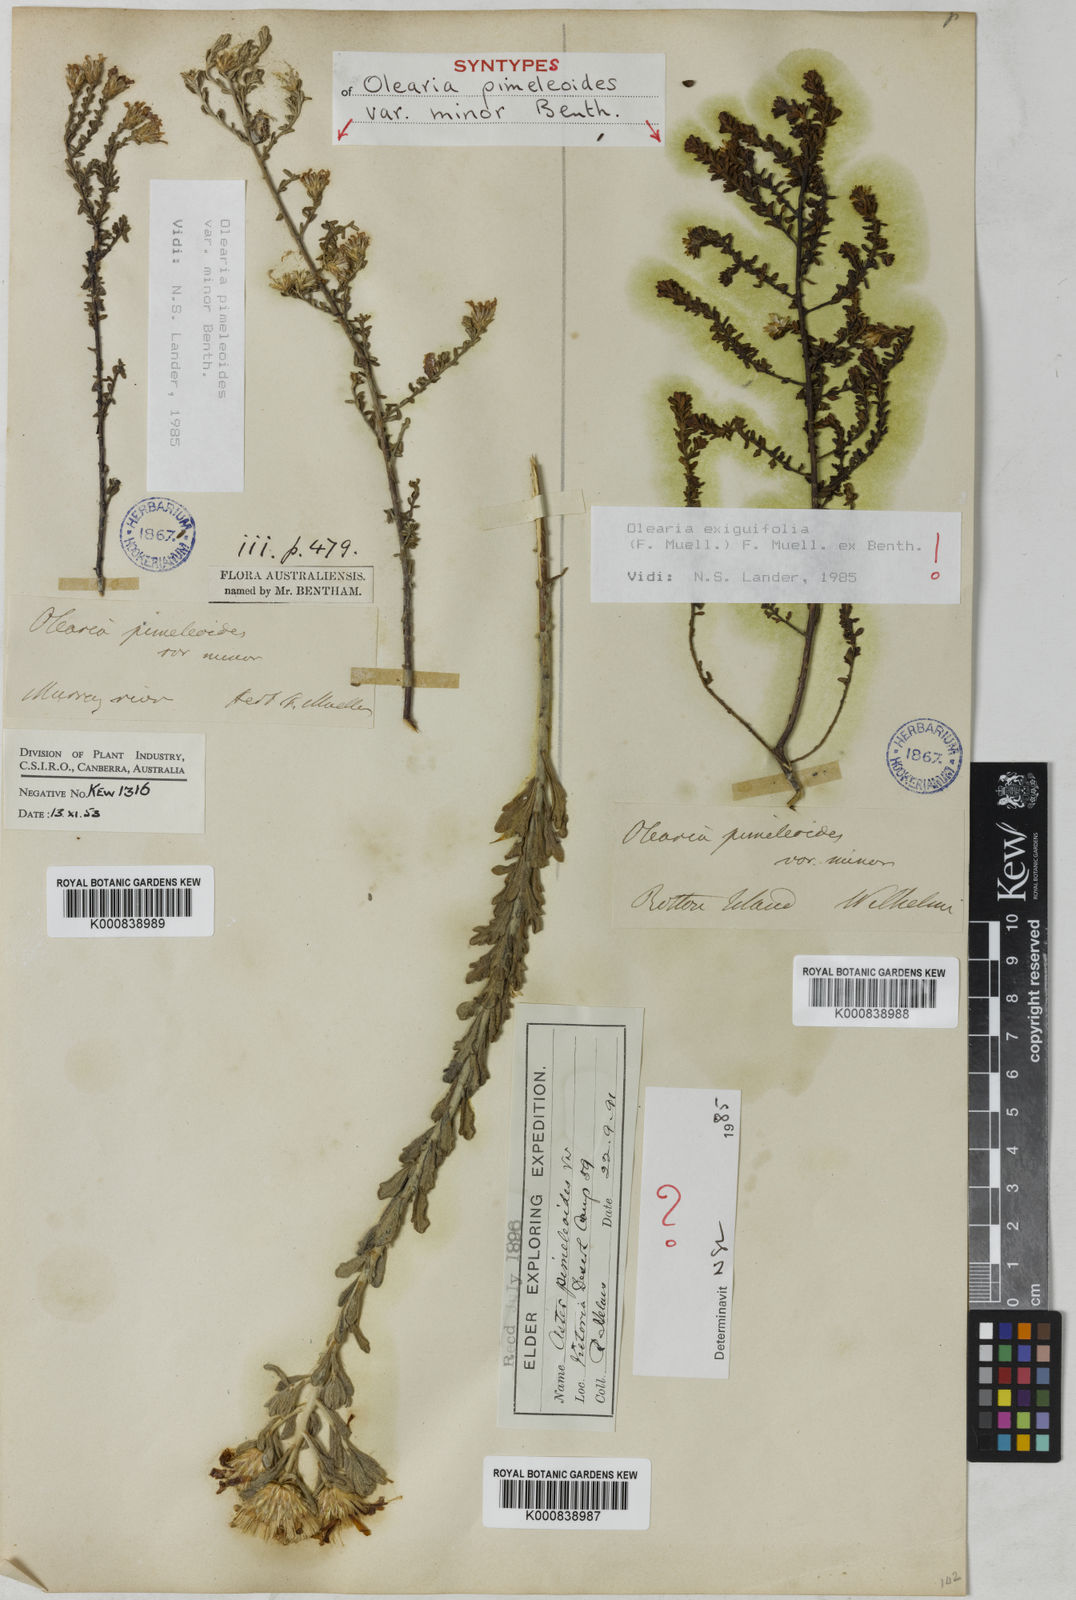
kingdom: Plantae
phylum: Tracheophyta
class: Magnoliopsida
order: Asterales
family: Asteraceae
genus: Olearia
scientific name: Olearia minor
